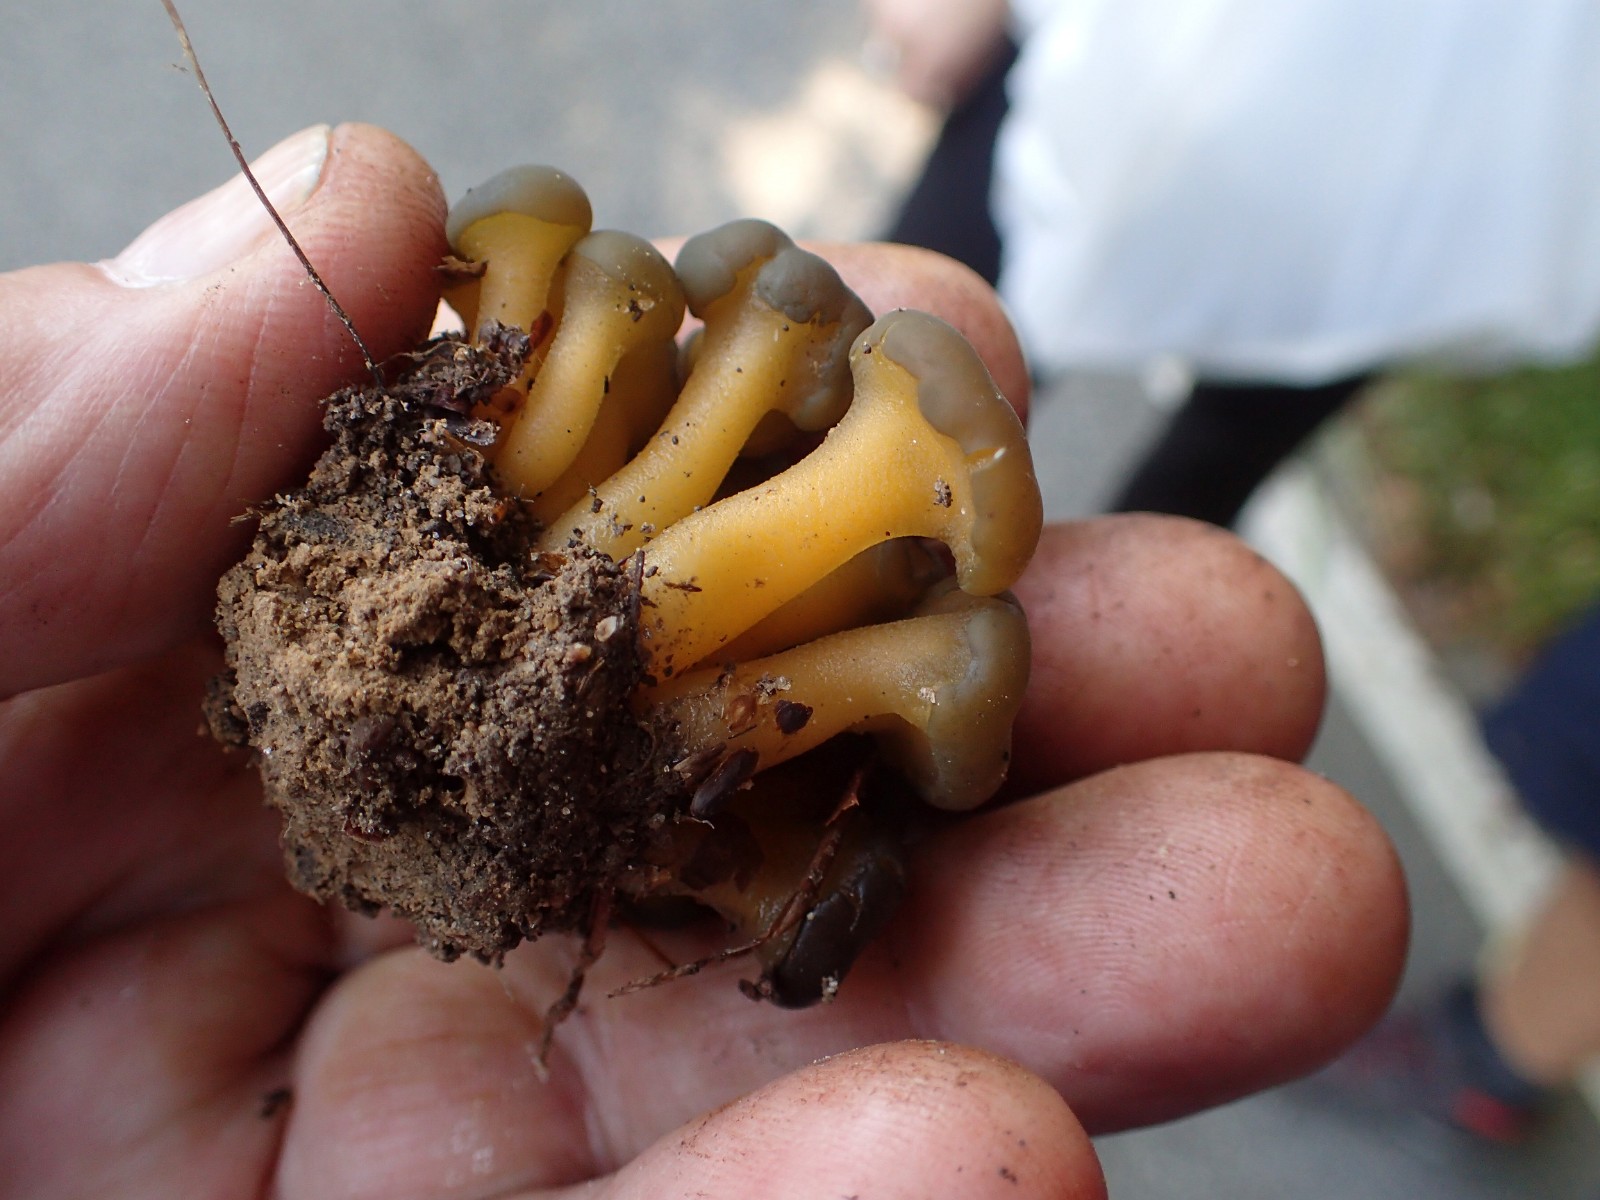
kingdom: Fungi
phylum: Ascomycota
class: Leotiomycetes
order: Leotiales
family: Leotiaceae
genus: Leotia
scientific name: Leotia lubrica
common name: ravsvamp
